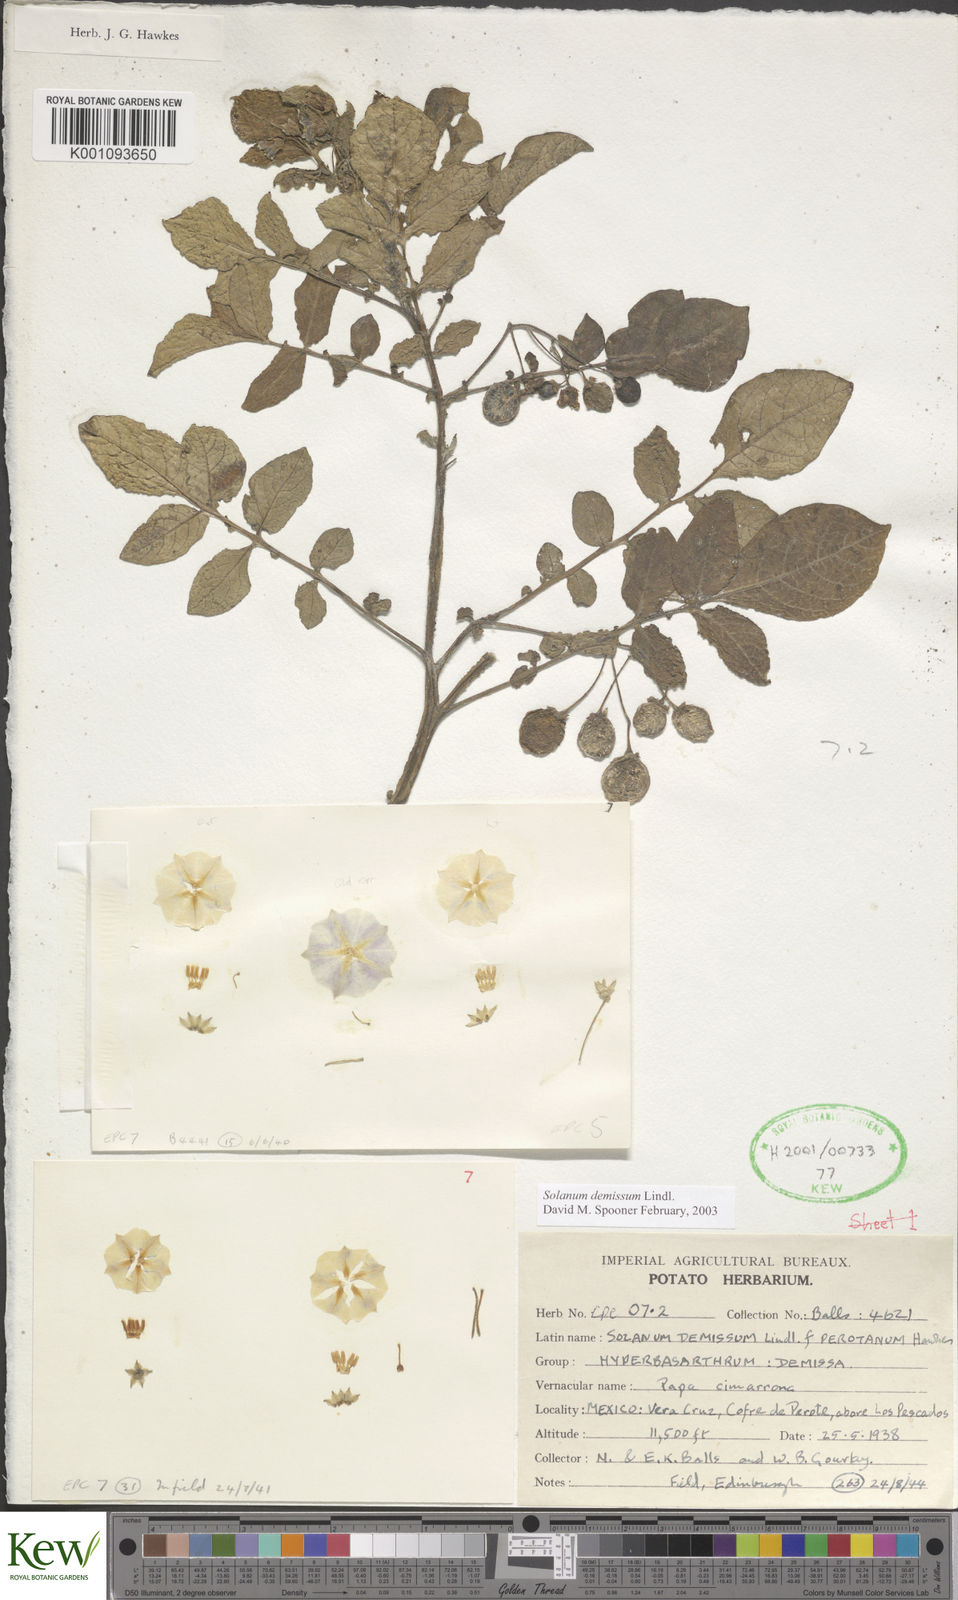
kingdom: Plantae
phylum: Tracheophyta
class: Magnoliopsida
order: Solanales
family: Solanaceae
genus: Solanum
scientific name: Solanum demissum
